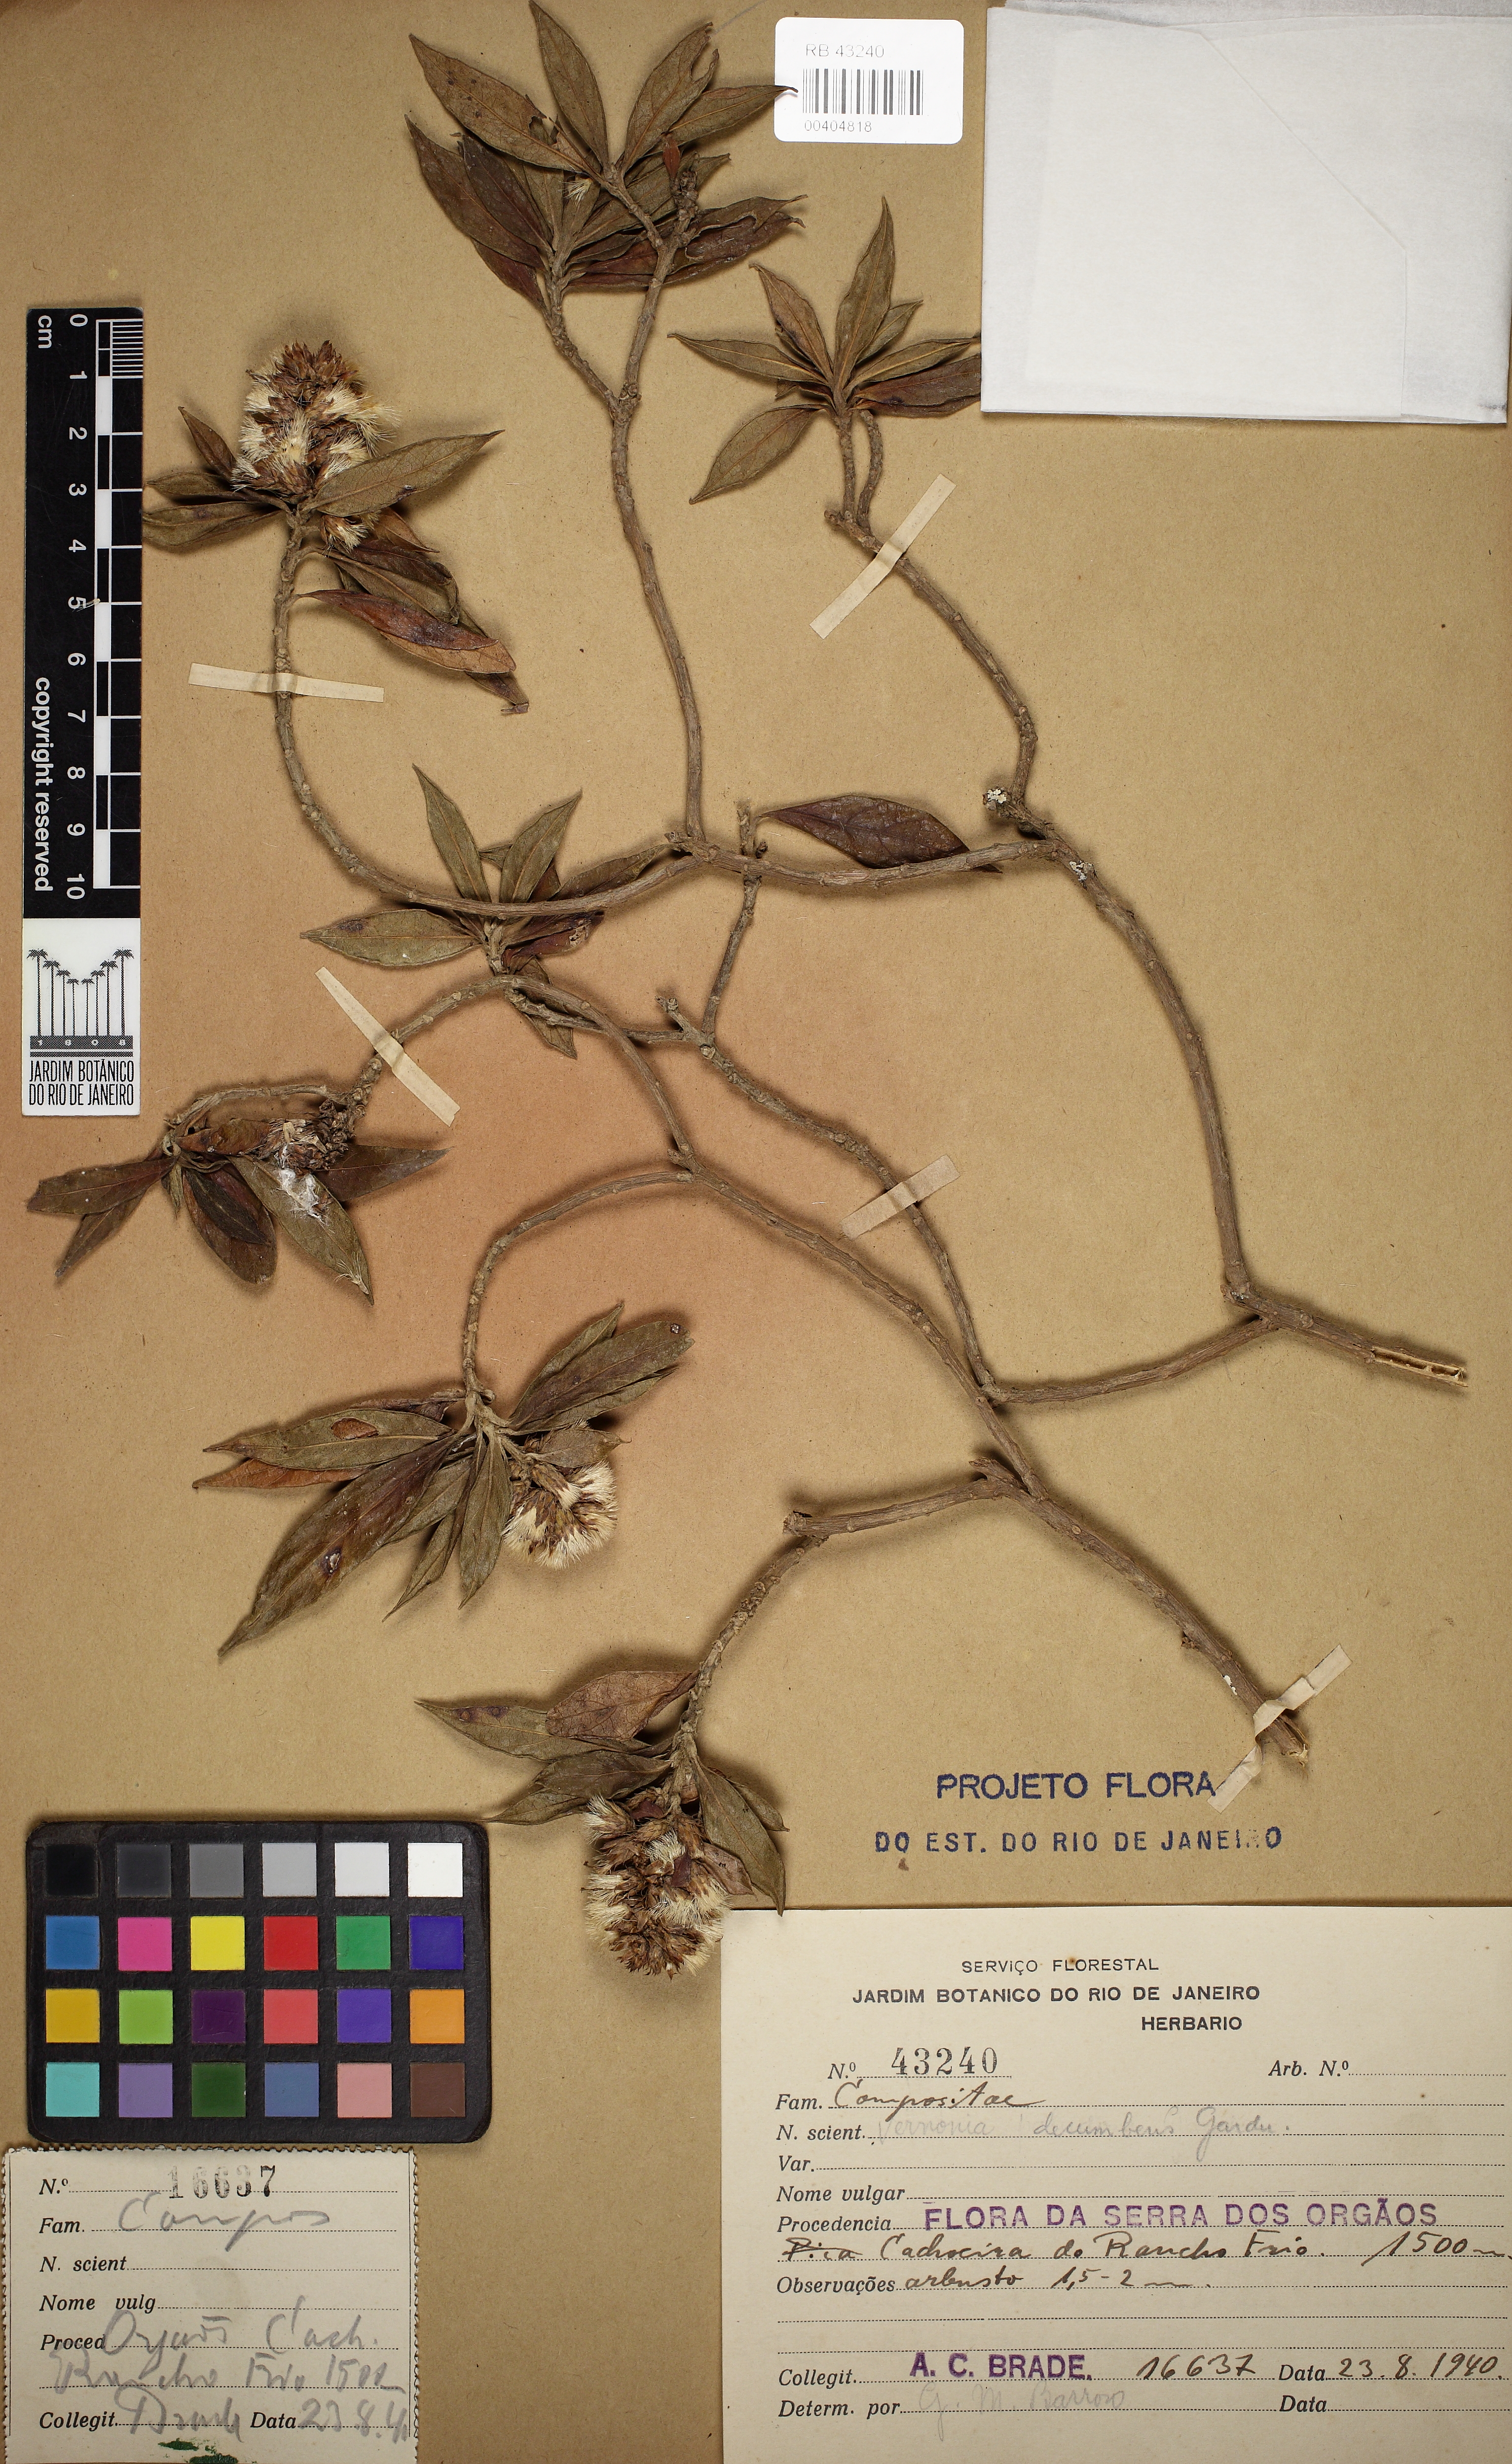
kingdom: Plantae
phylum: Tracheophyta
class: Magnoliopsida
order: Asterales
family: Asteraceae
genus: Lepidaploa
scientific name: Lepidaploa decumbens
